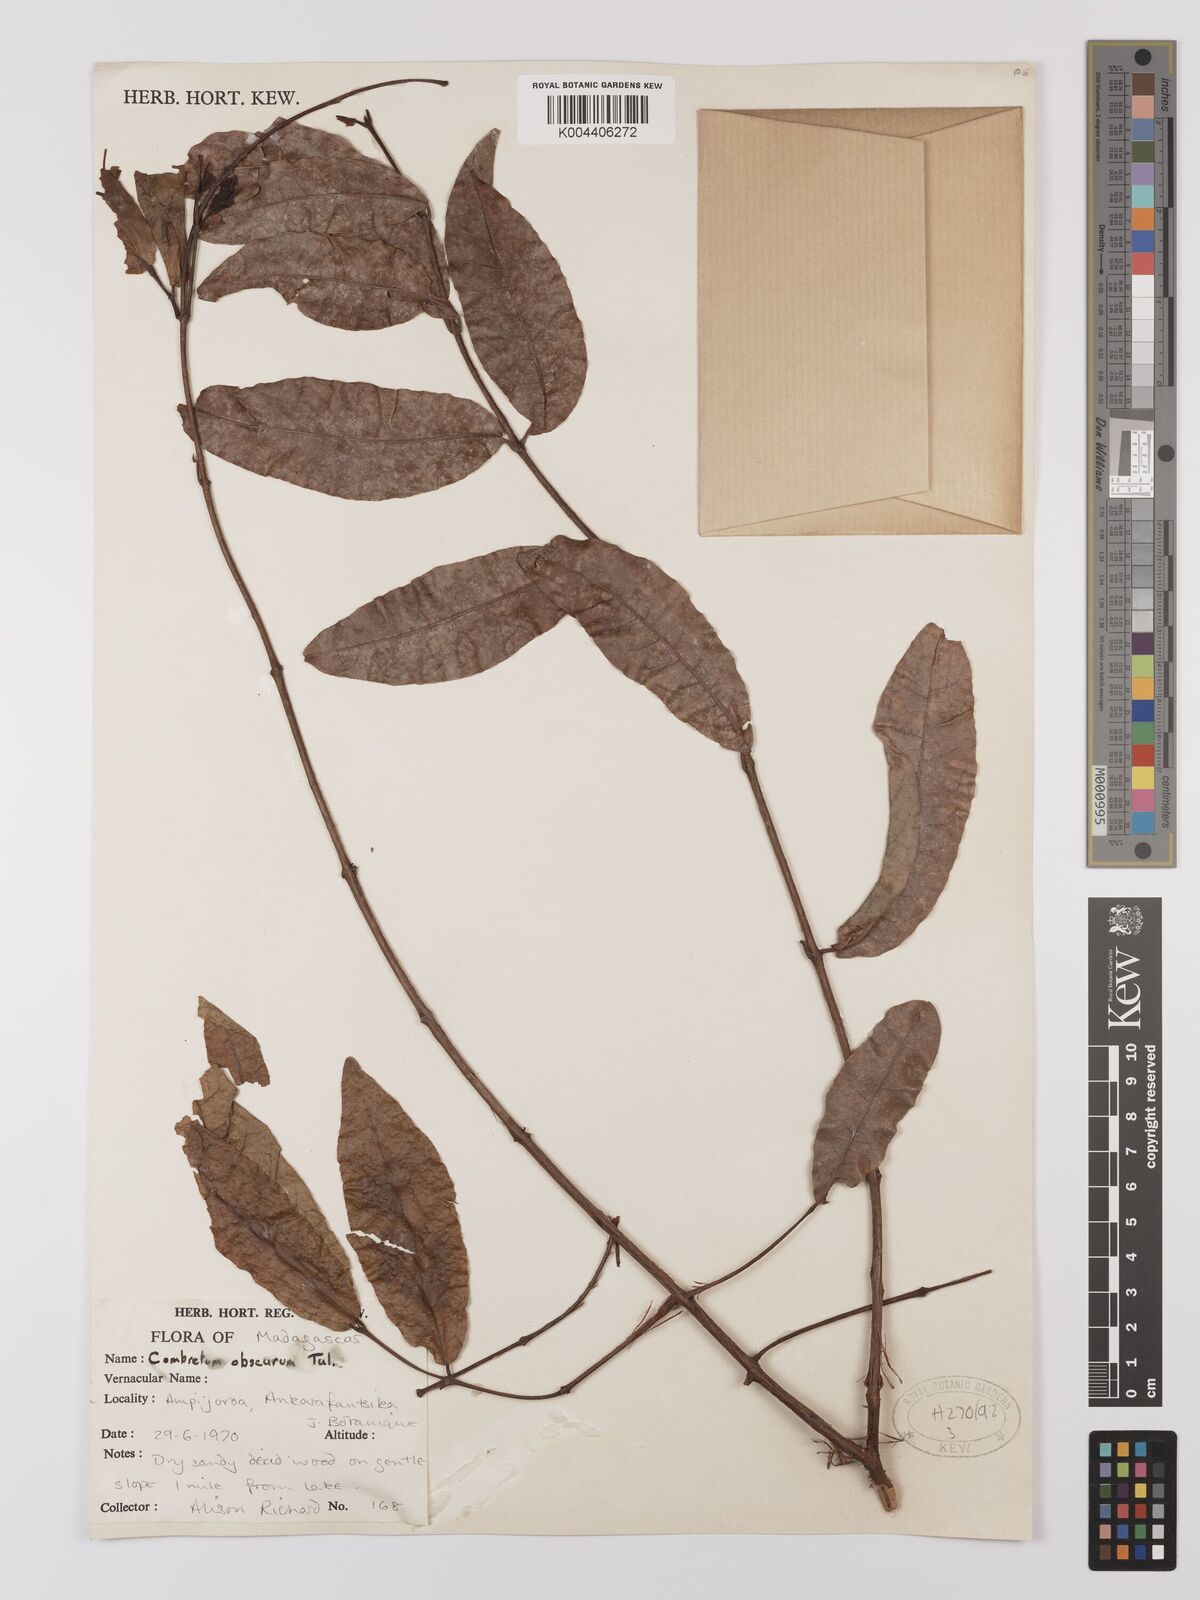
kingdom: Plantae
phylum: Tracheophyta
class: Magnoliopsida
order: Myrtales
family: Combretaceae
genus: Combretum
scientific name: Combretum obscurum
